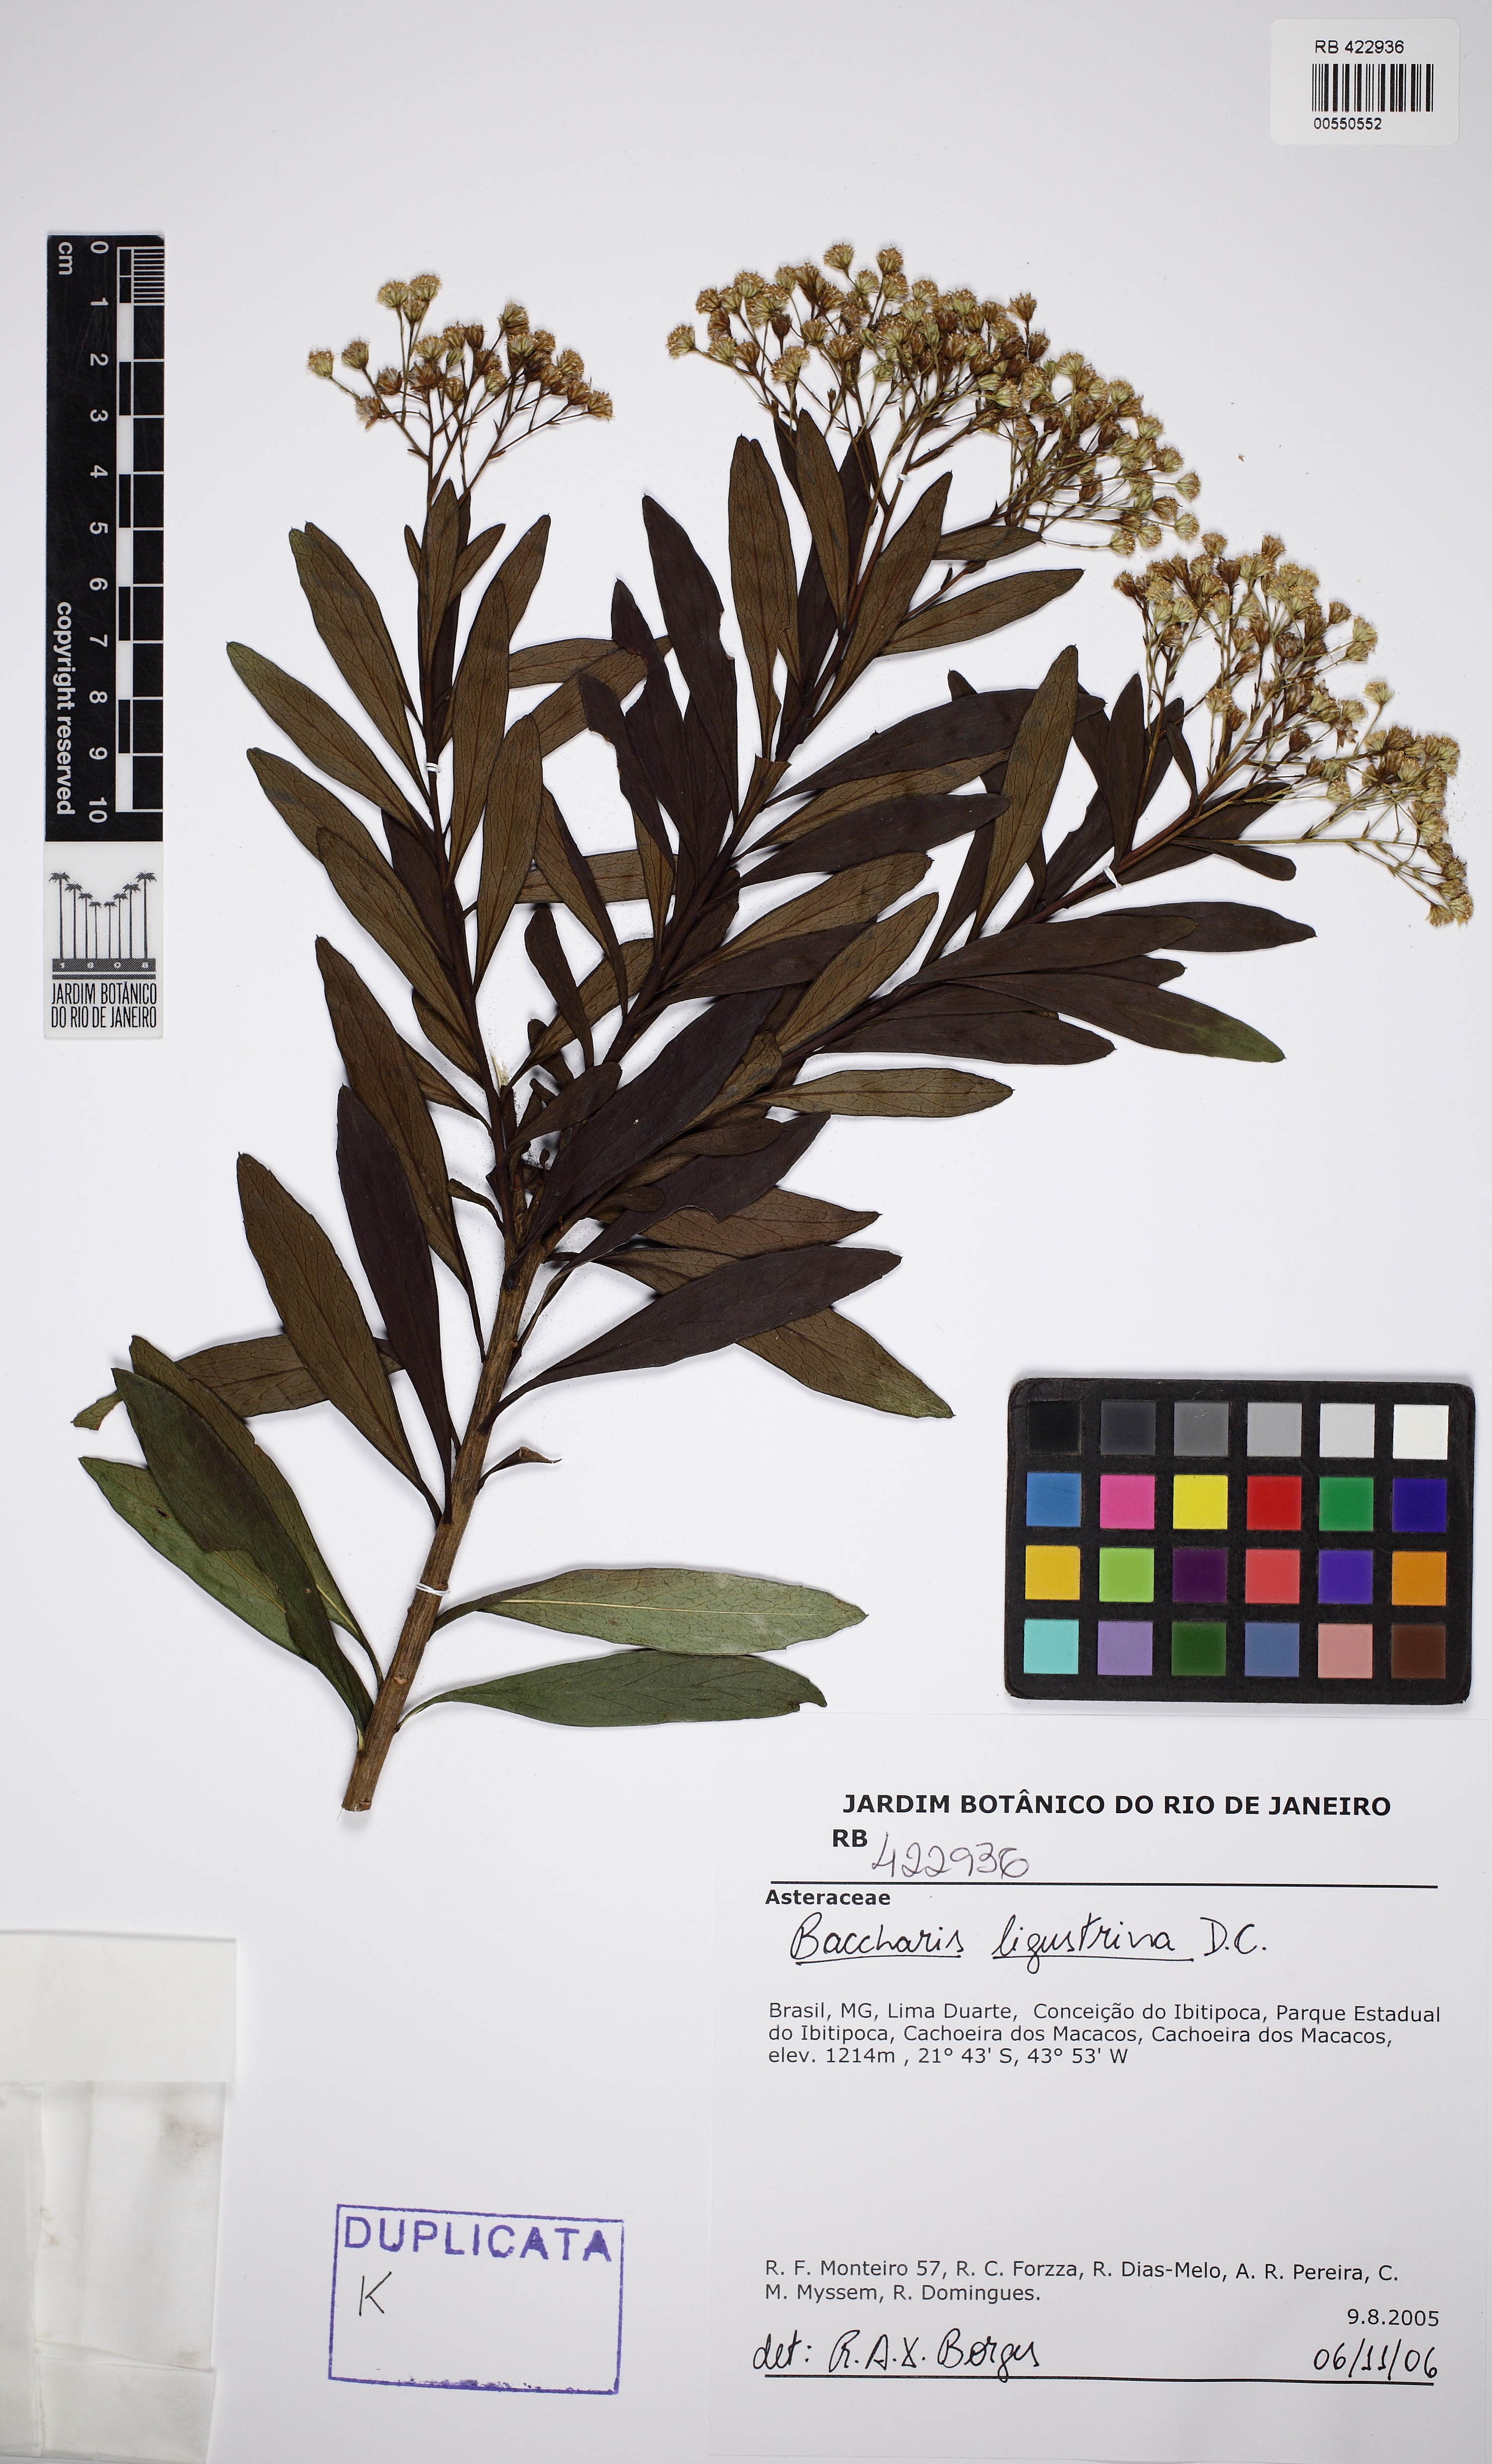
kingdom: Plantae
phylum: Tracheophyta
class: Magnoliopsida
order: Asterales
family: Asteraceae
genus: Baccharis
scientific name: Baccharis ligustrina
